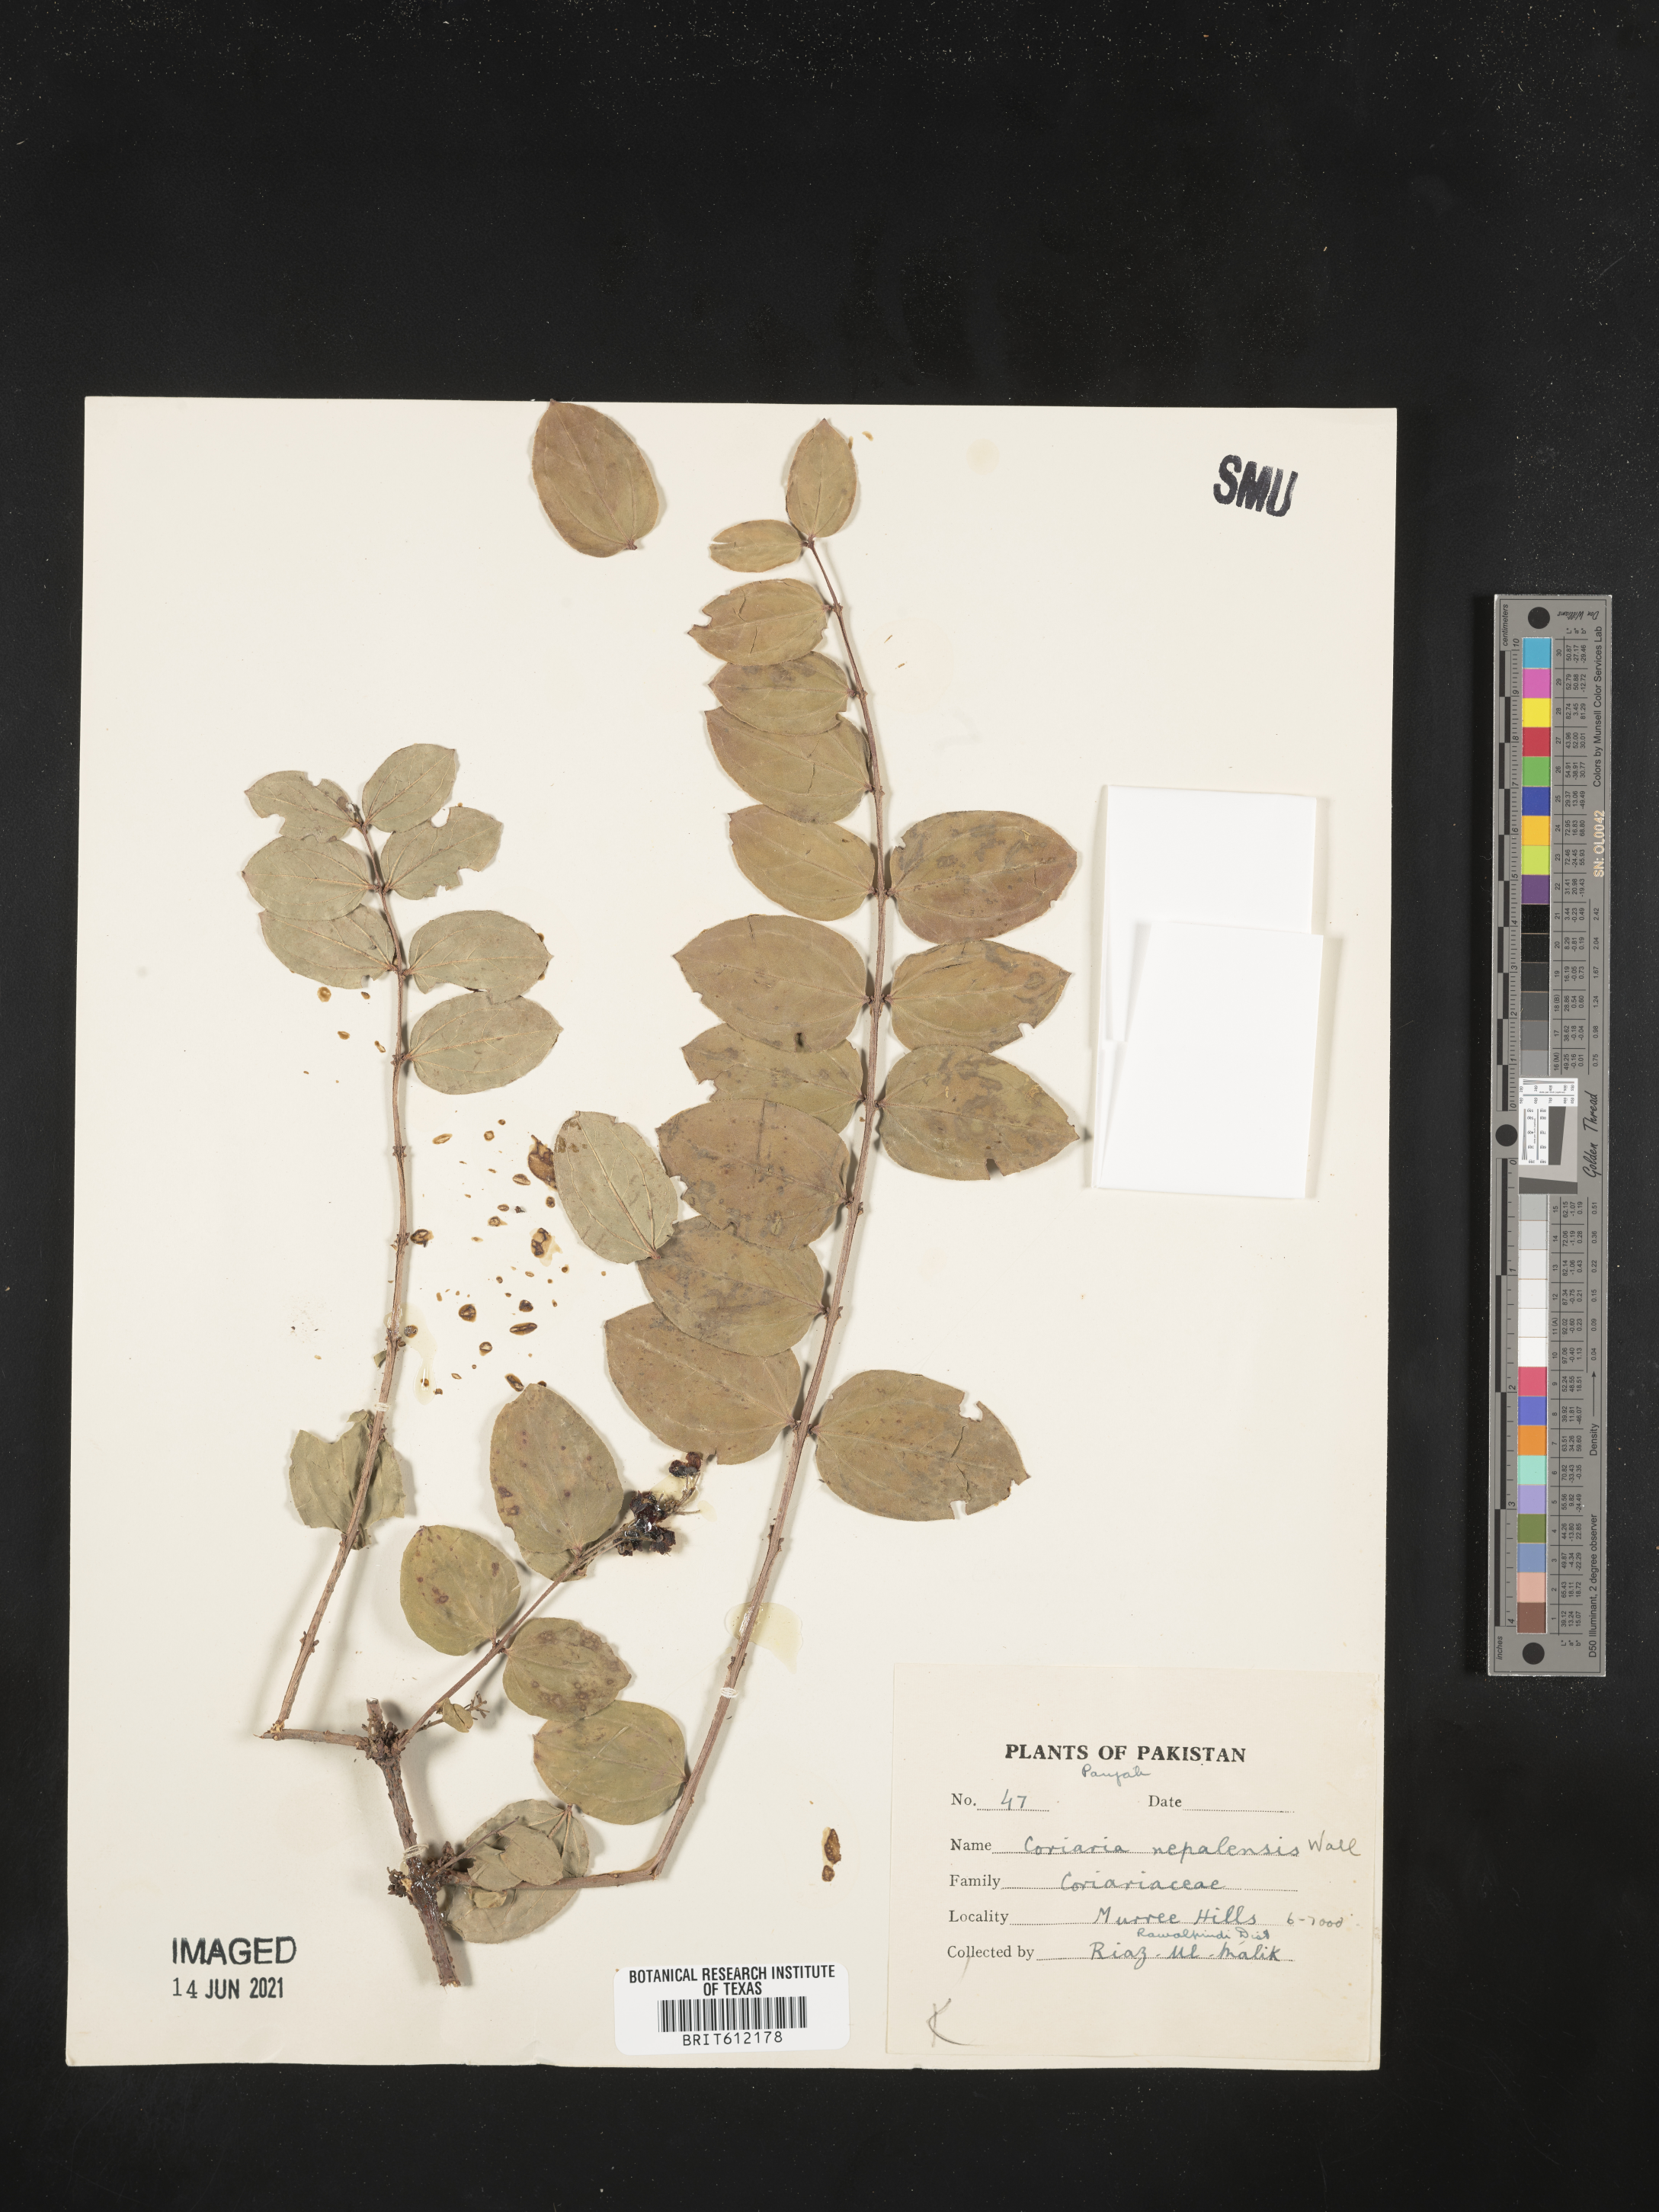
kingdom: Plantae
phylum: Tracheophyta
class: Magnoliopsida
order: Cucurbitales
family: Coriariaceae
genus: Coriaria
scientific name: Coriaria nepalensis
